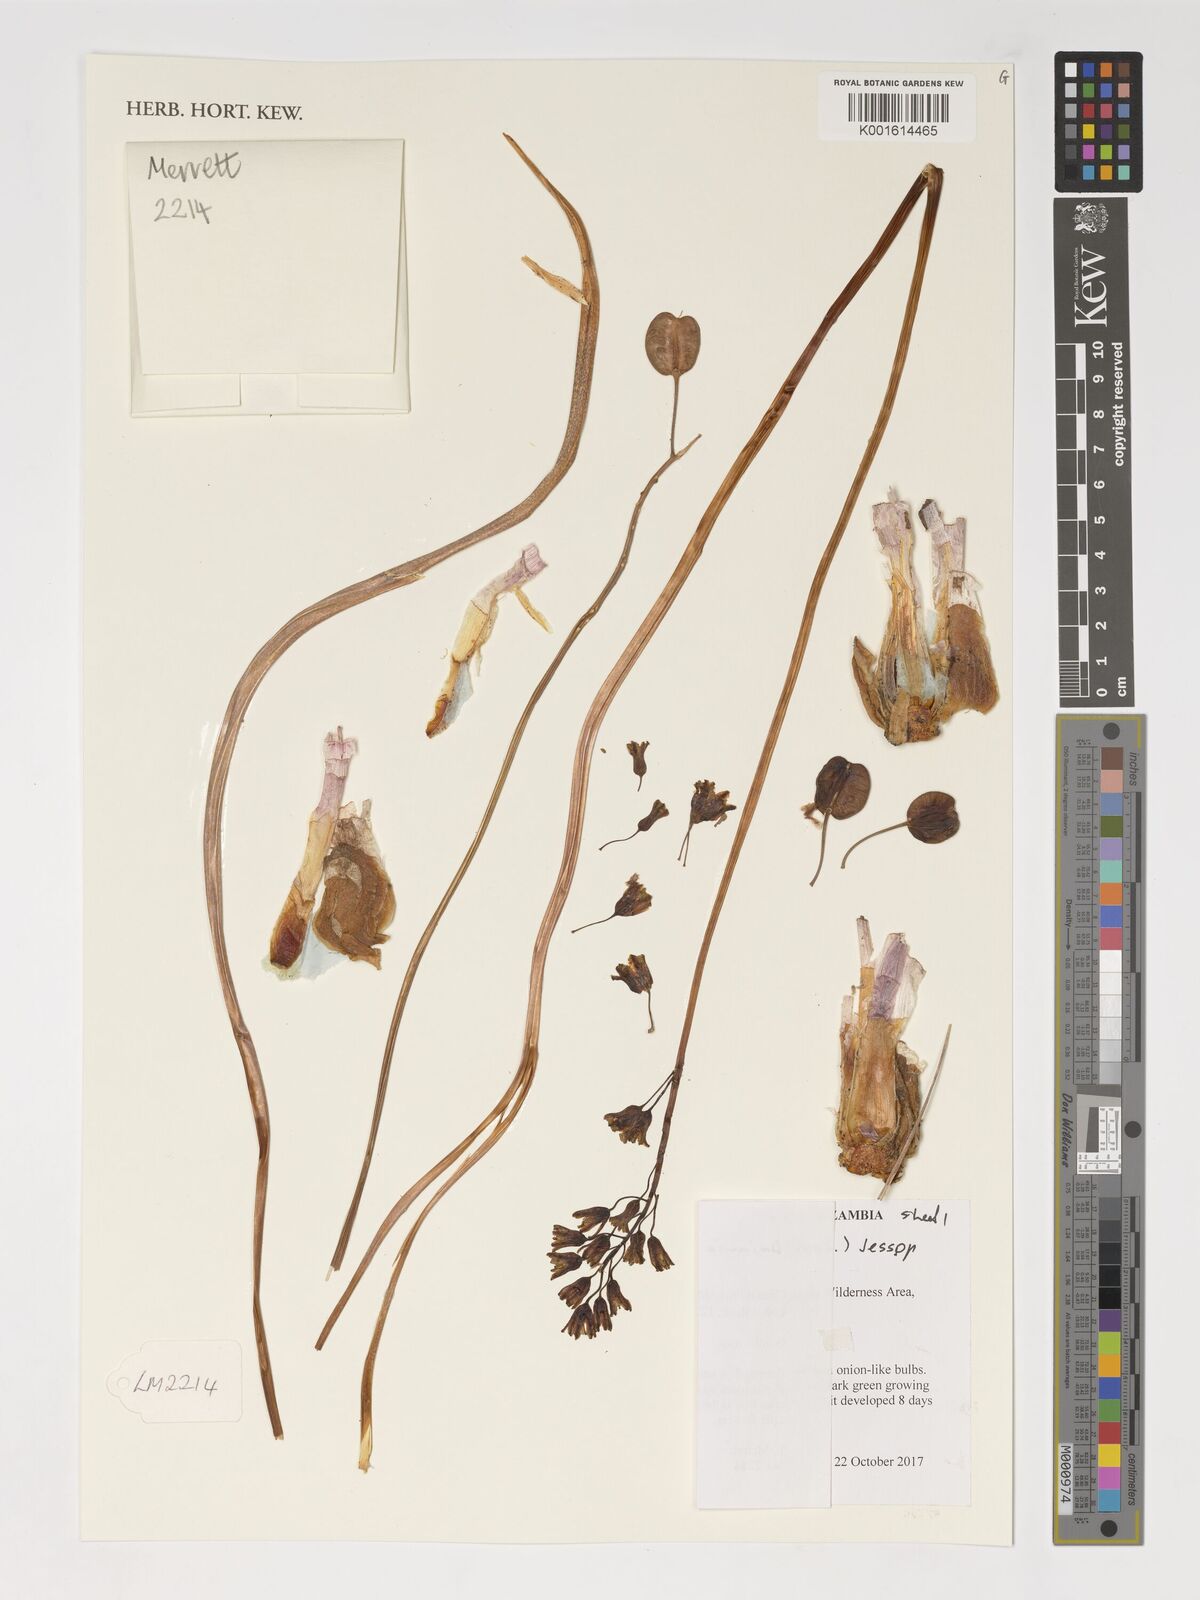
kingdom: Plantae
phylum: Tracheophyta
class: Liliopsida
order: Asparagales
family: Asparagaceae
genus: Drimia
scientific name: Drimia indica
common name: Indian-squill
